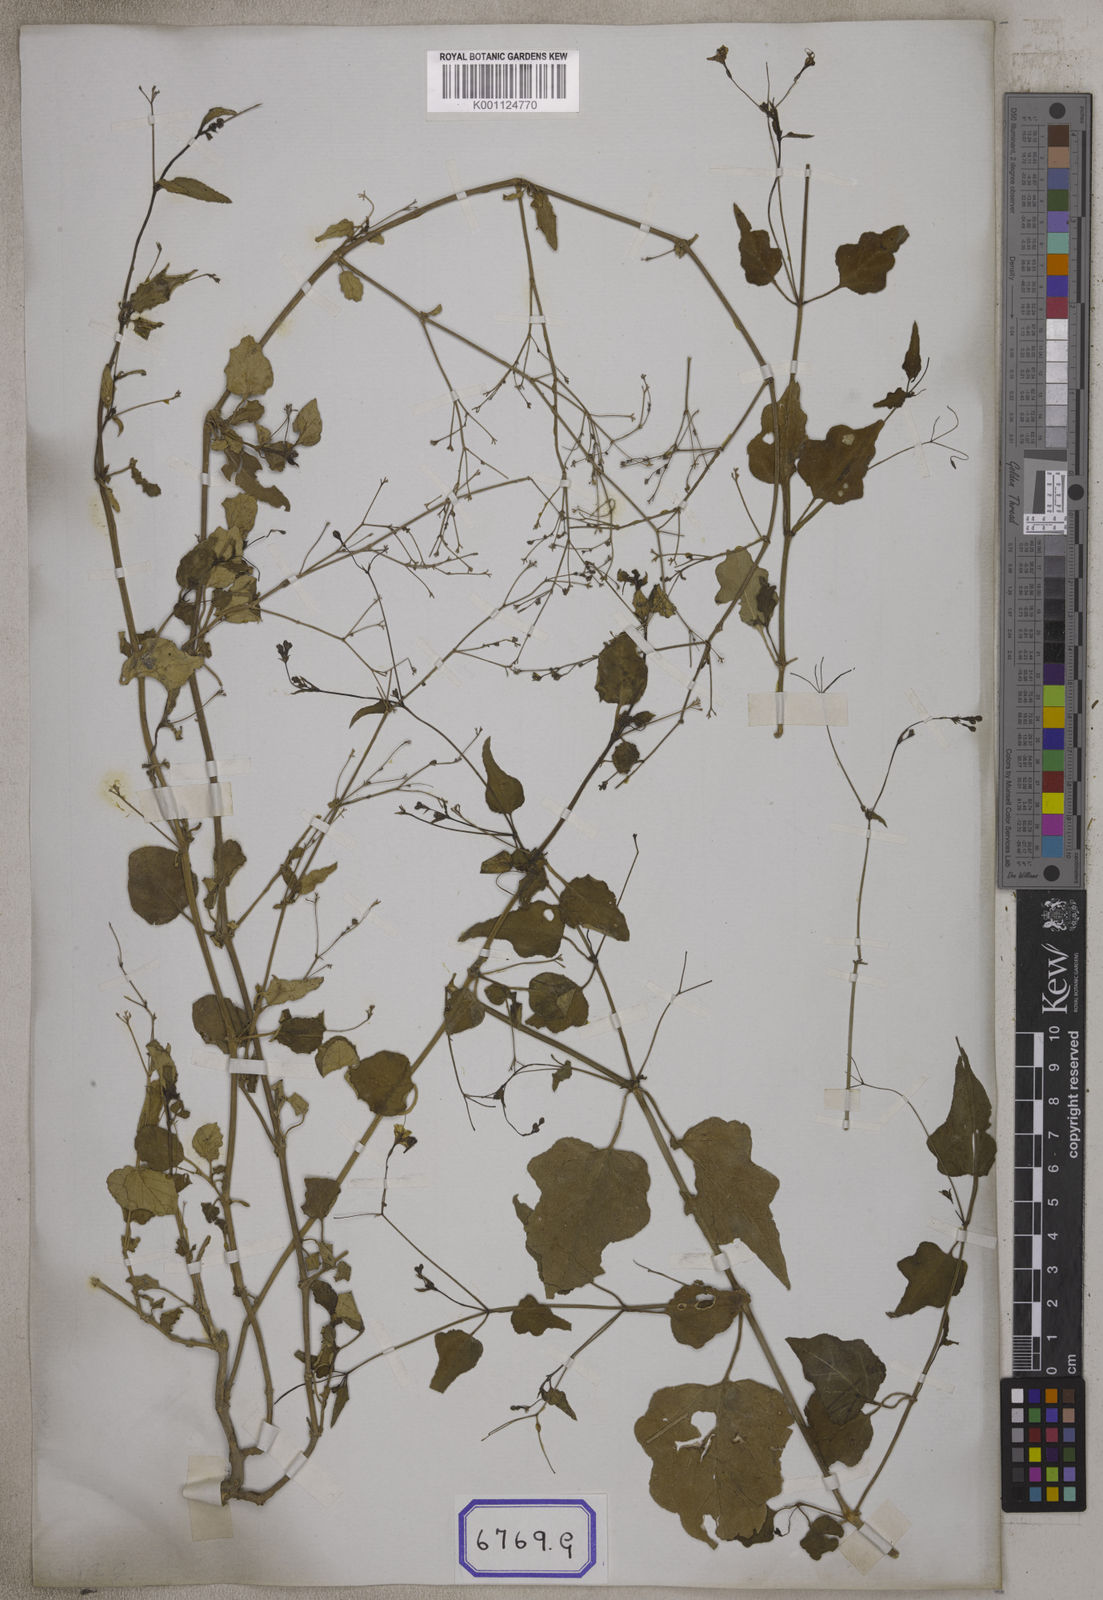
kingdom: Plantae
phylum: Tracheophyta
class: Magnoliopsida
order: Caryophyllales
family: Nyctaginaceae
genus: Commicarpus
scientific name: Commicarpus chinensis
